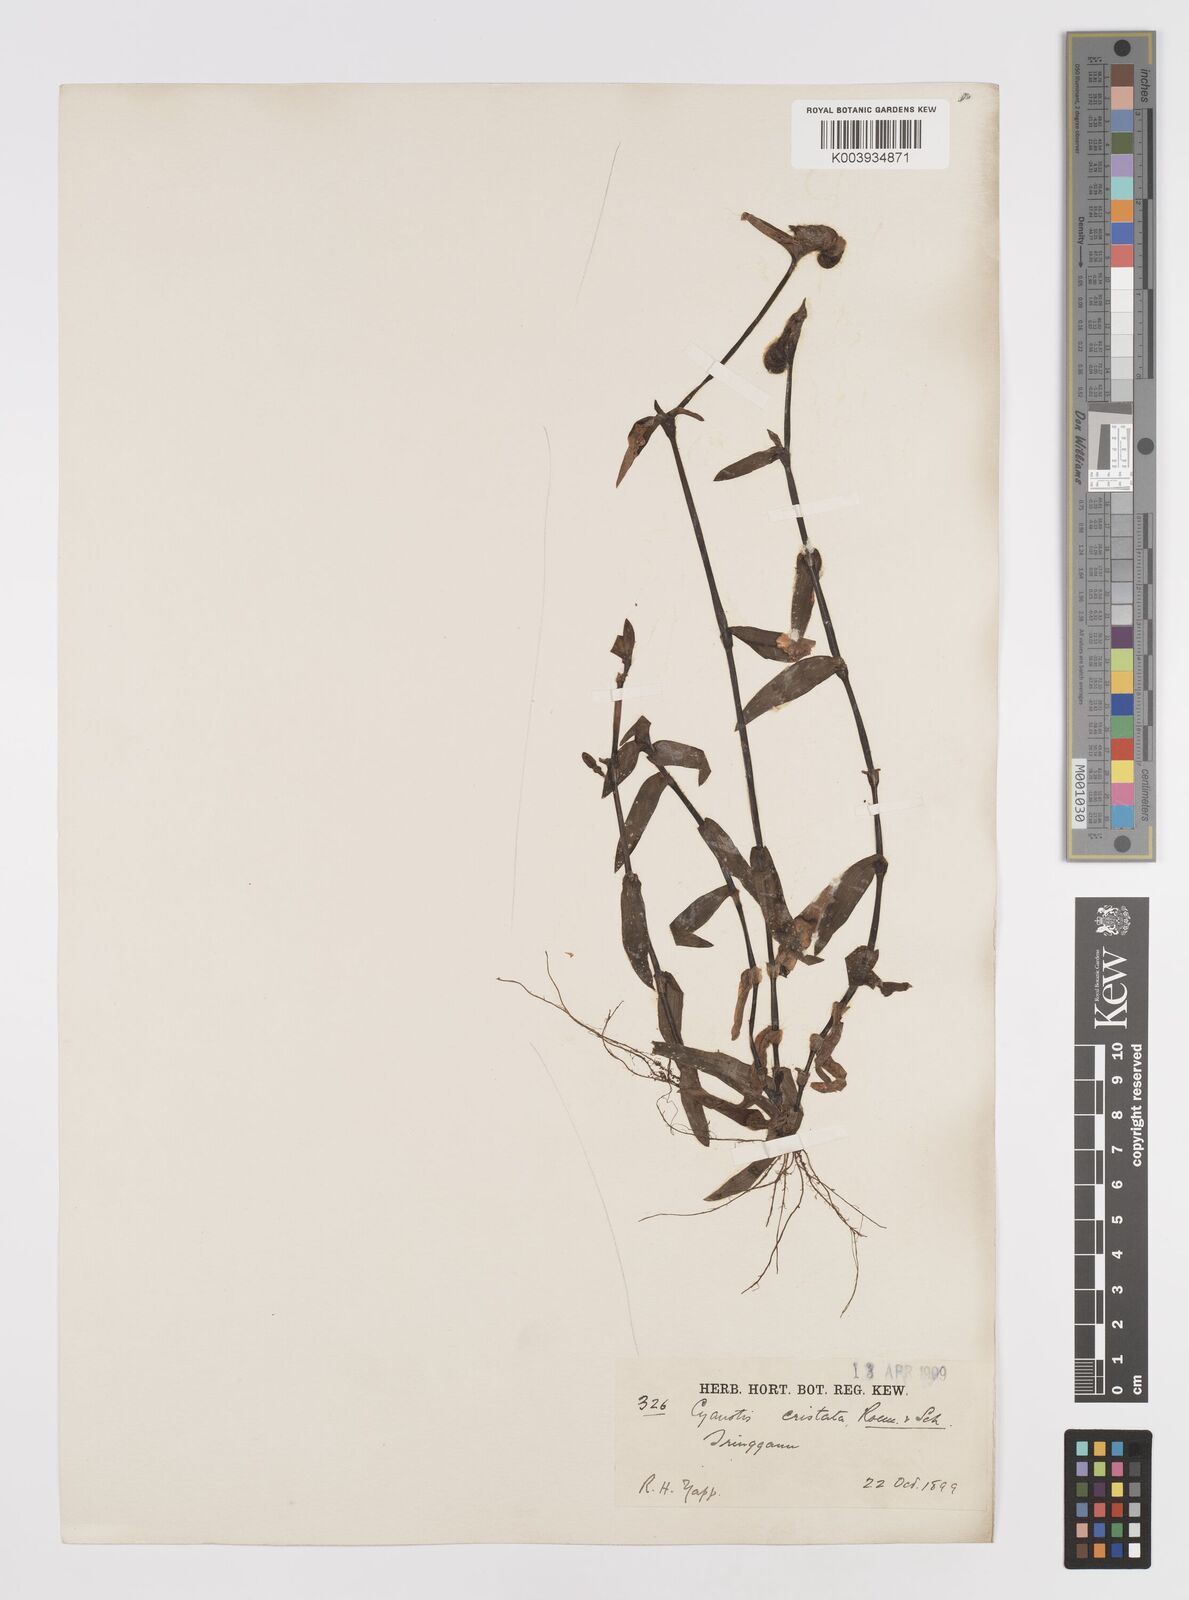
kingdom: Plantae
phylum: Tracheophyta
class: Liliopsida
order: Commelinales
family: Commelinaceae
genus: Cyanotis
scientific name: Cyanotis cristata
